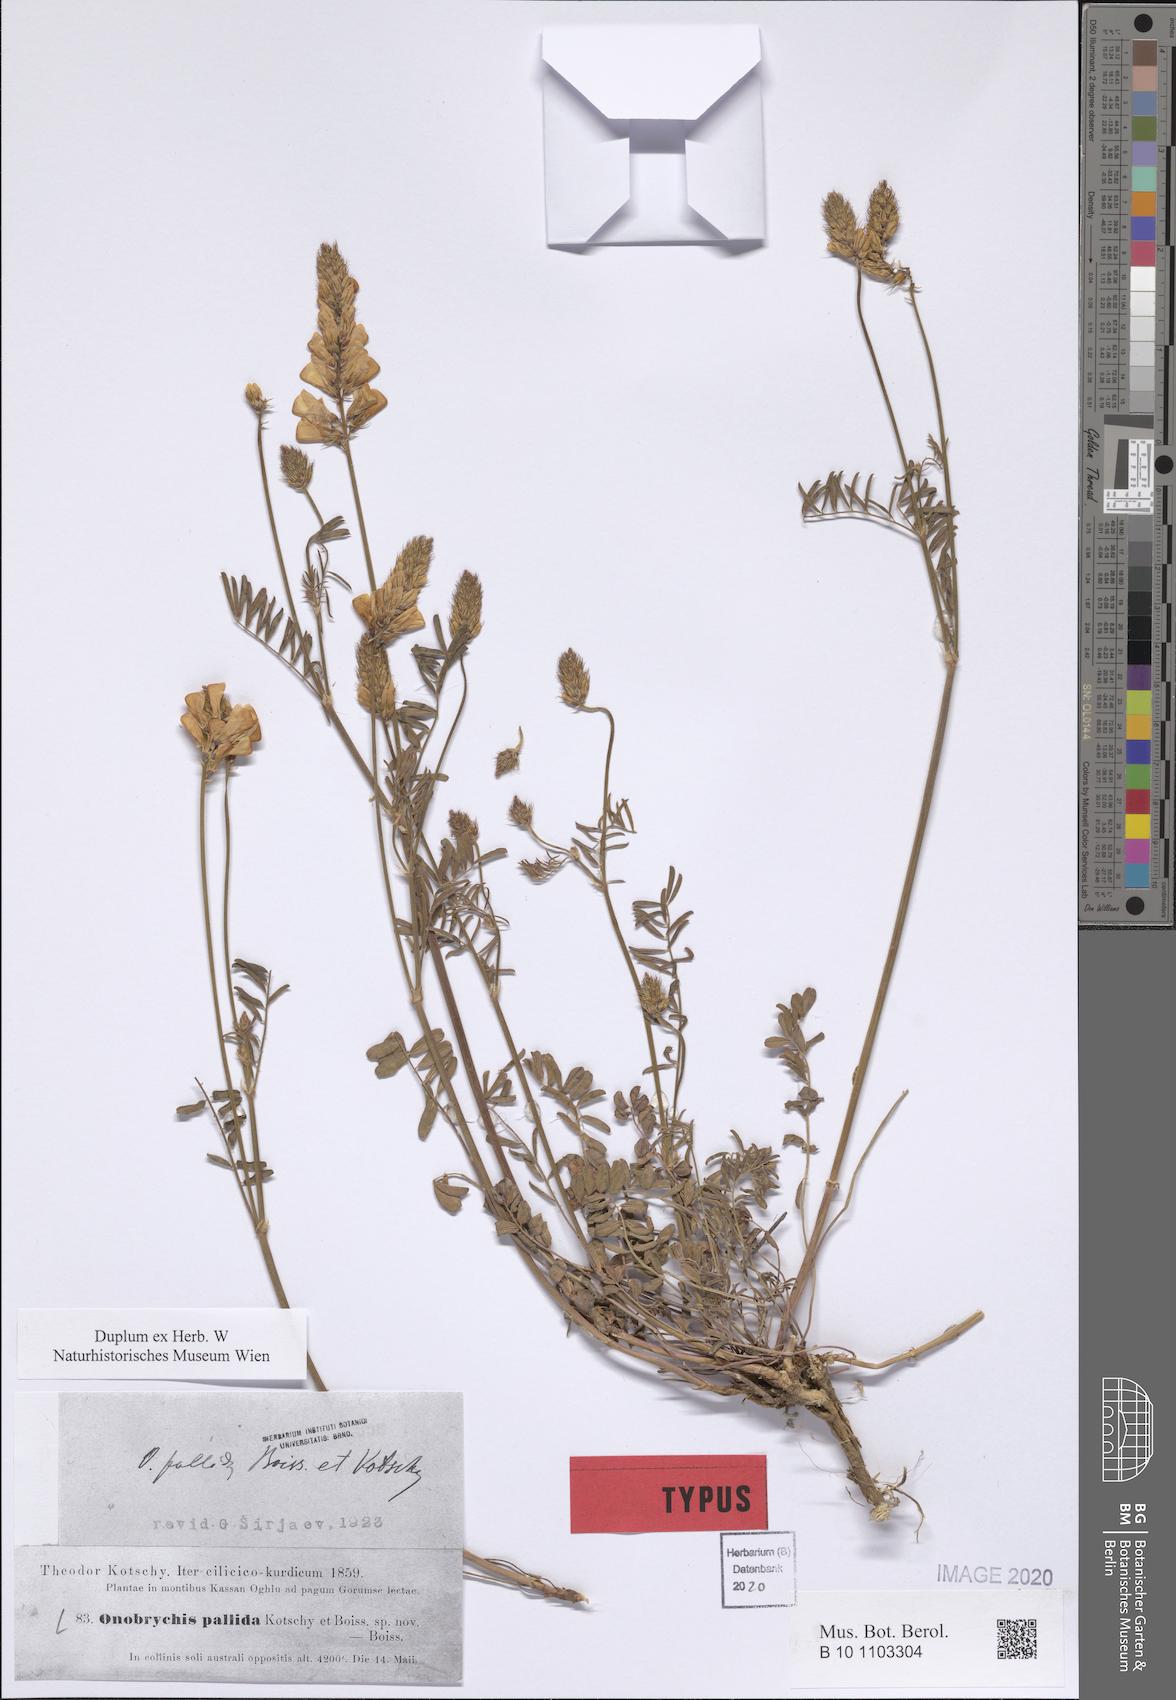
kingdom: Plantae
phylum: Tracheophyta
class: Magnoliopsida
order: Fabales
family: Fabaceae
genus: Onobrychis
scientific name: Onobrychis sulphurea
